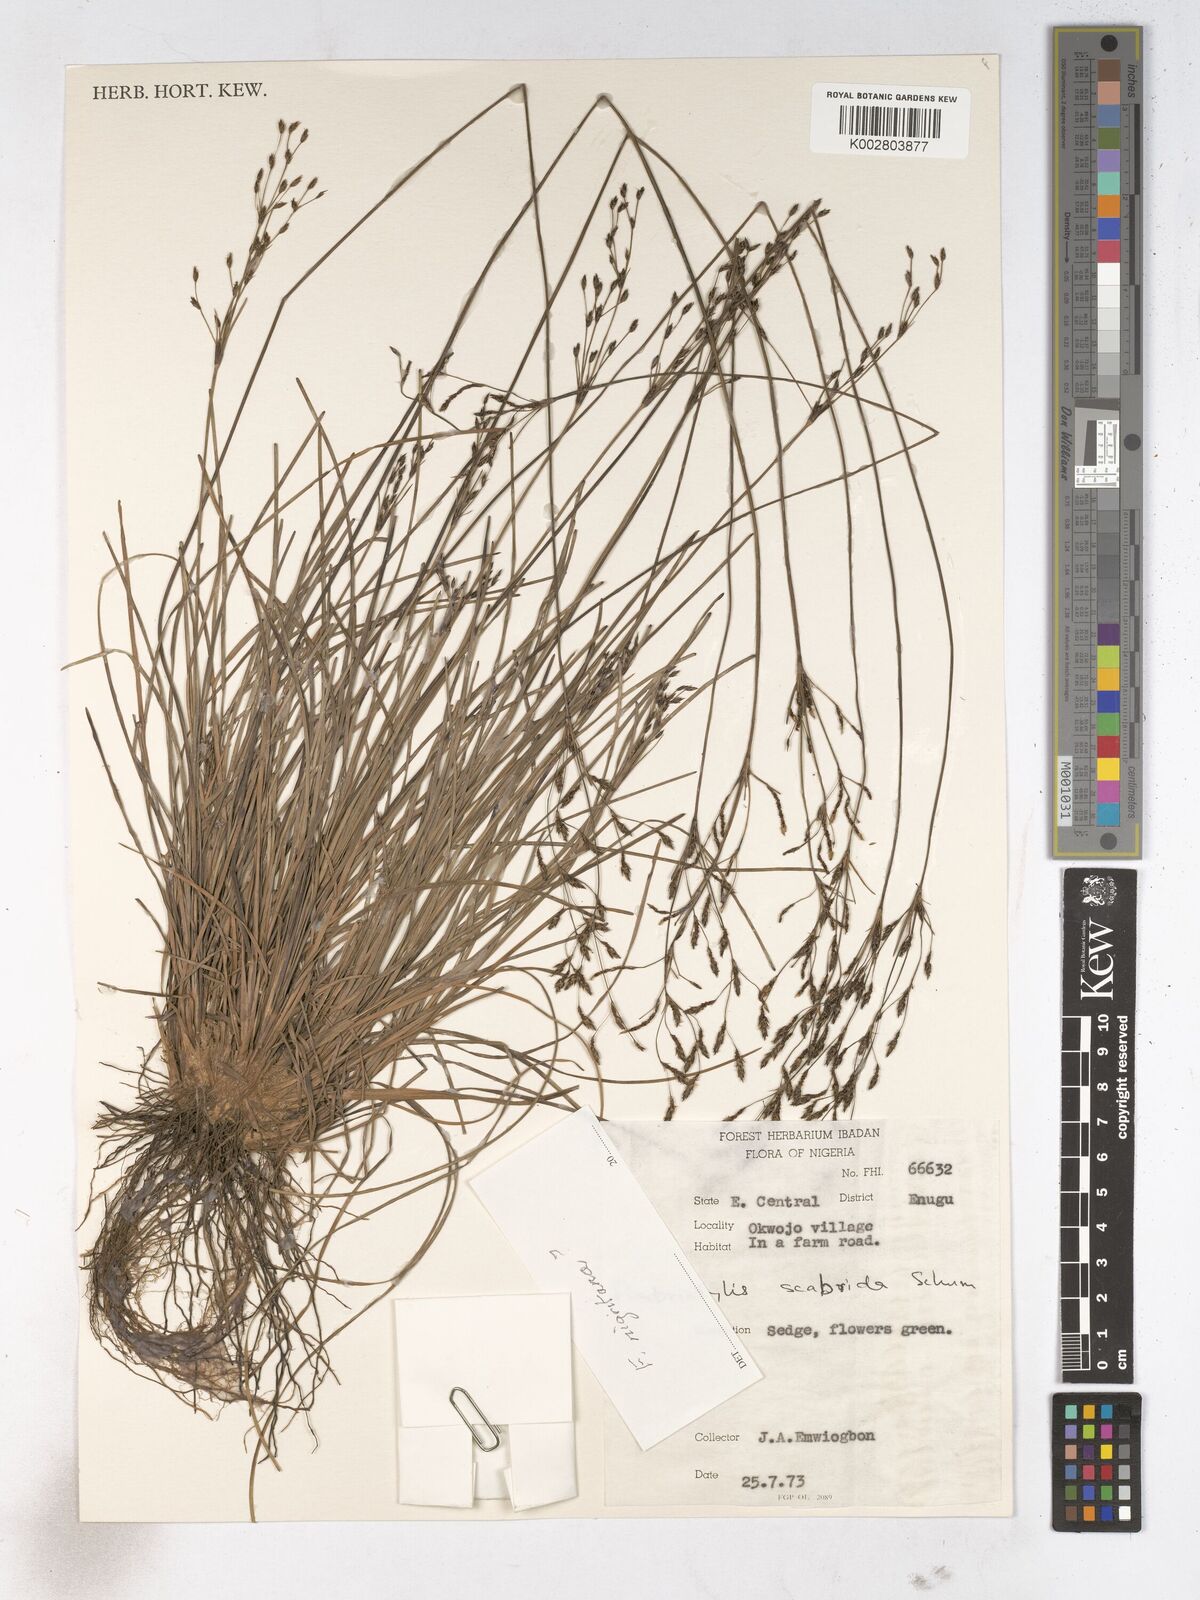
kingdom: Plantae
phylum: Tracheophyta
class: Liliopsida
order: Poales
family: Cyperaceae
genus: Fimbristylis
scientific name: Fimbristylis scabrida
